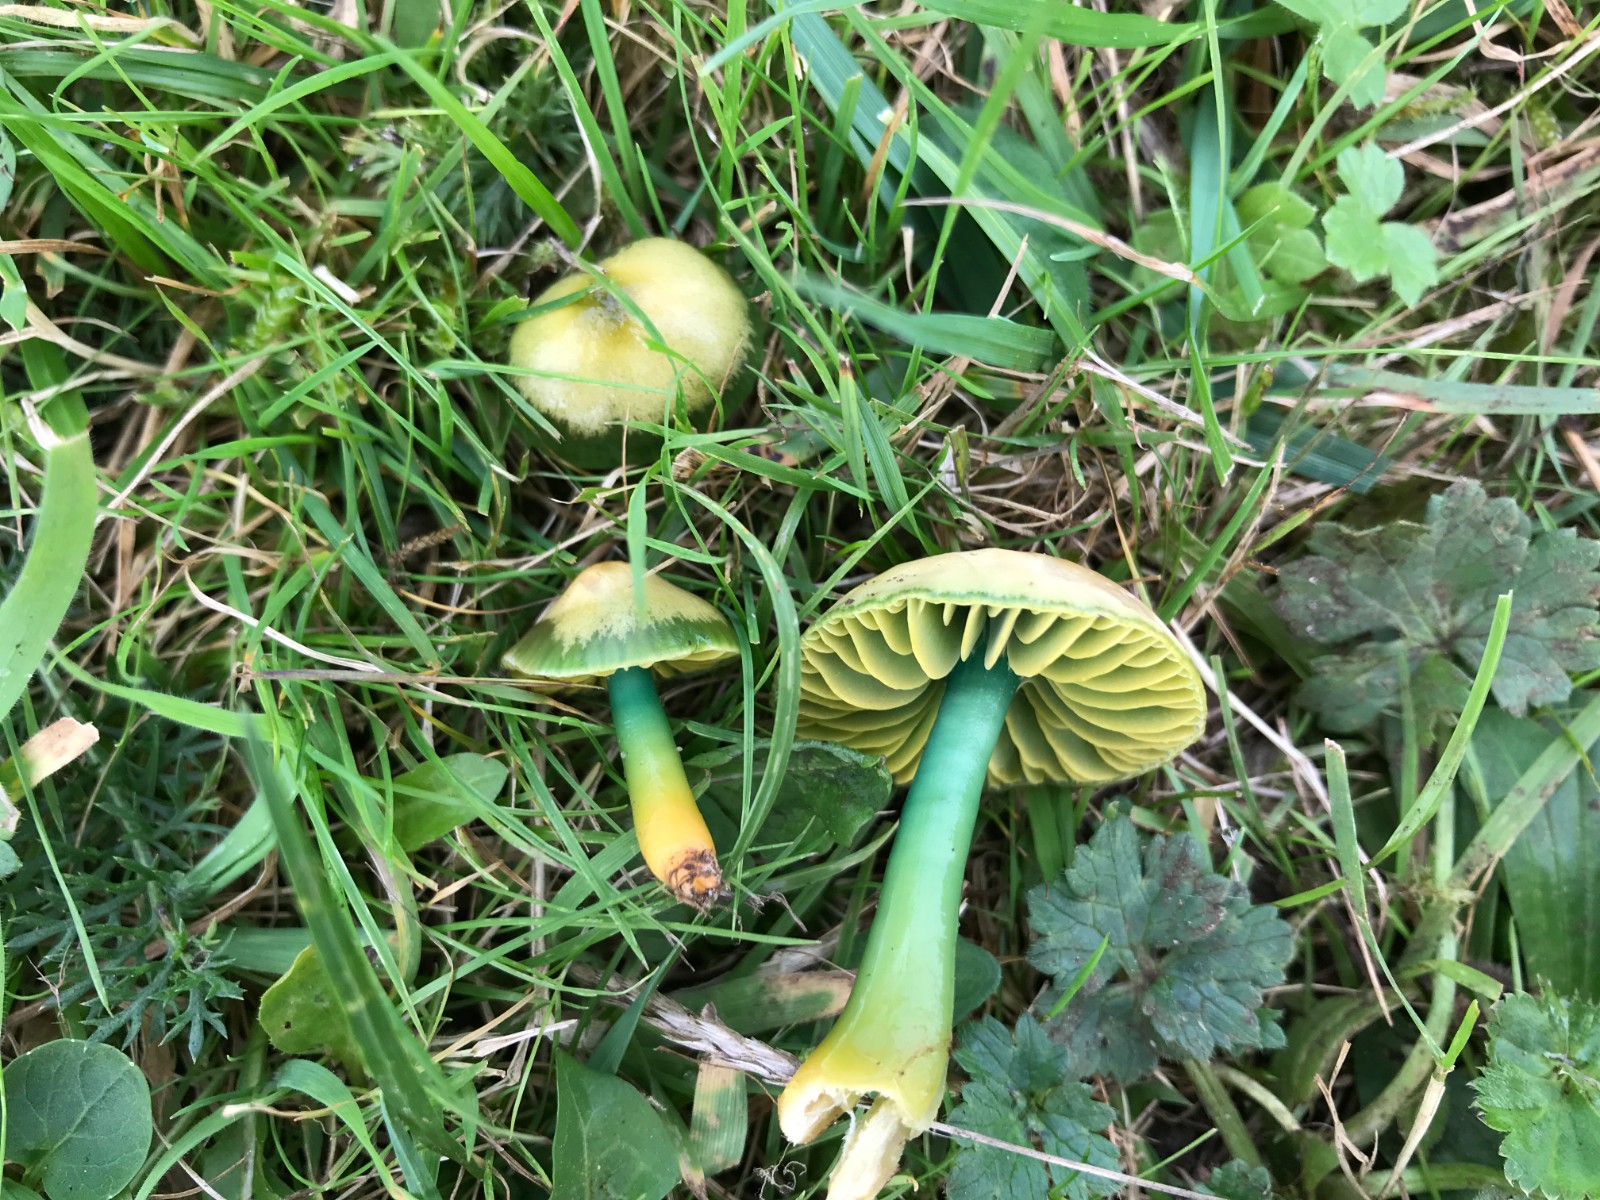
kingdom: Fungi
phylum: Basidiomycota
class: Agaricomycetes
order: Agaricales
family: Hygrophoraceae
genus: Gliophorus
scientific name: Gliophorus psittacinus
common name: papegøje-vokshat
